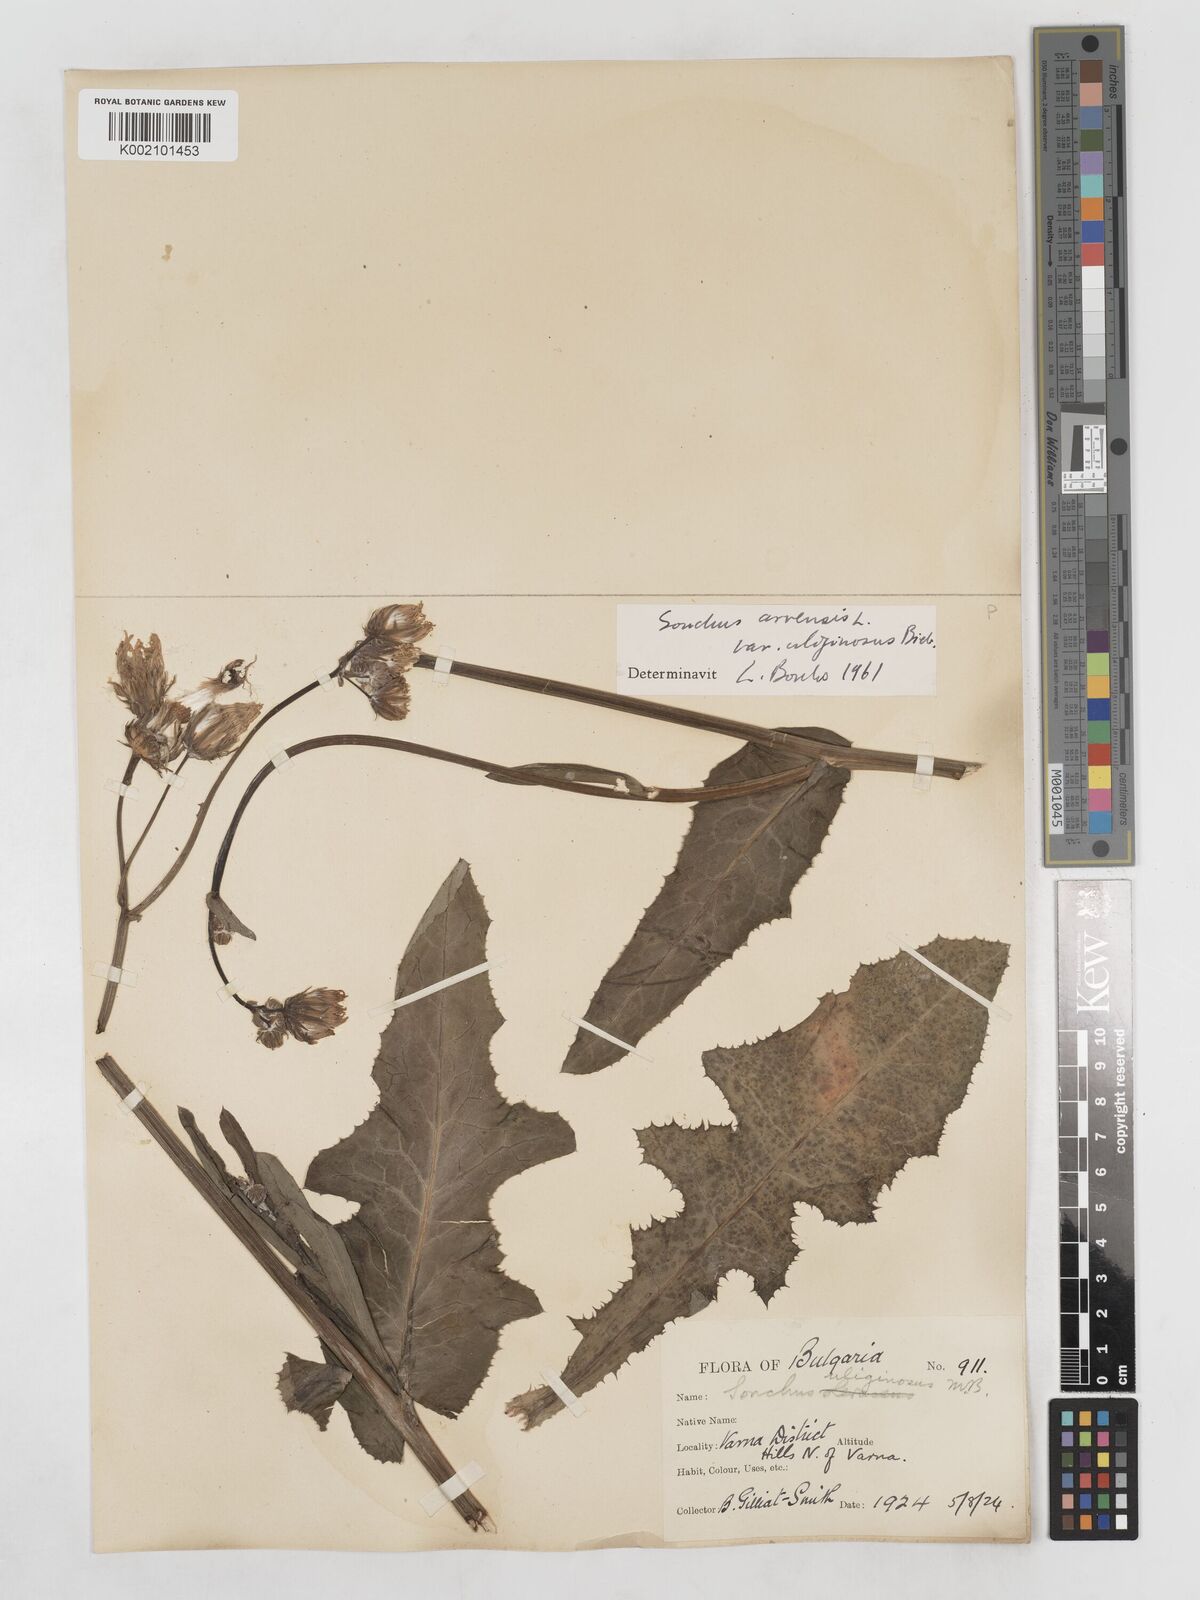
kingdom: Plantae
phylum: Tracheophyta
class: Magnoliopsida
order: Asterales
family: Asteraceae
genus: Sonchus
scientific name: Sonchus arvensis
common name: Perennial sow-thistle
